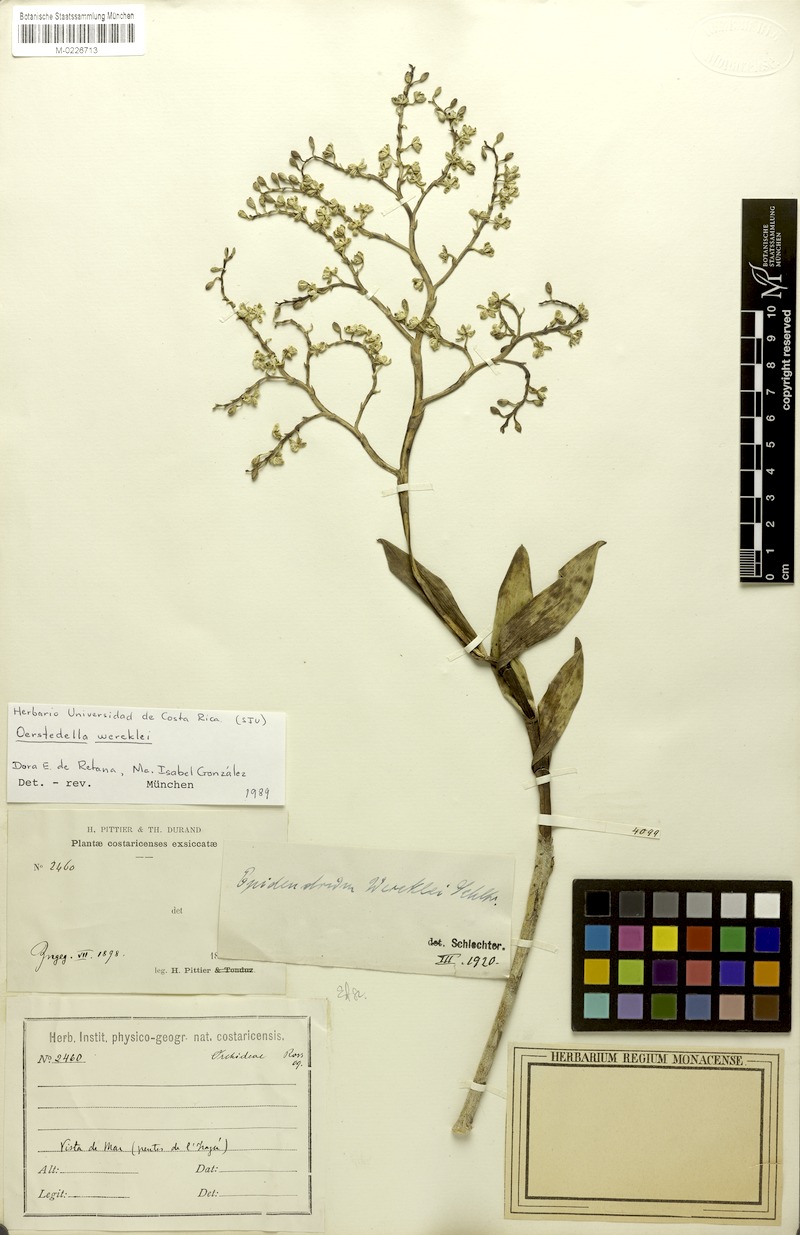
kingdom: Plantae
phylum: Tracheophyta
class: Liliopsida
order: Asparagales
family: Orchidaceae
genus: Epidendrum
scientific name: Epidendrum wercklei
